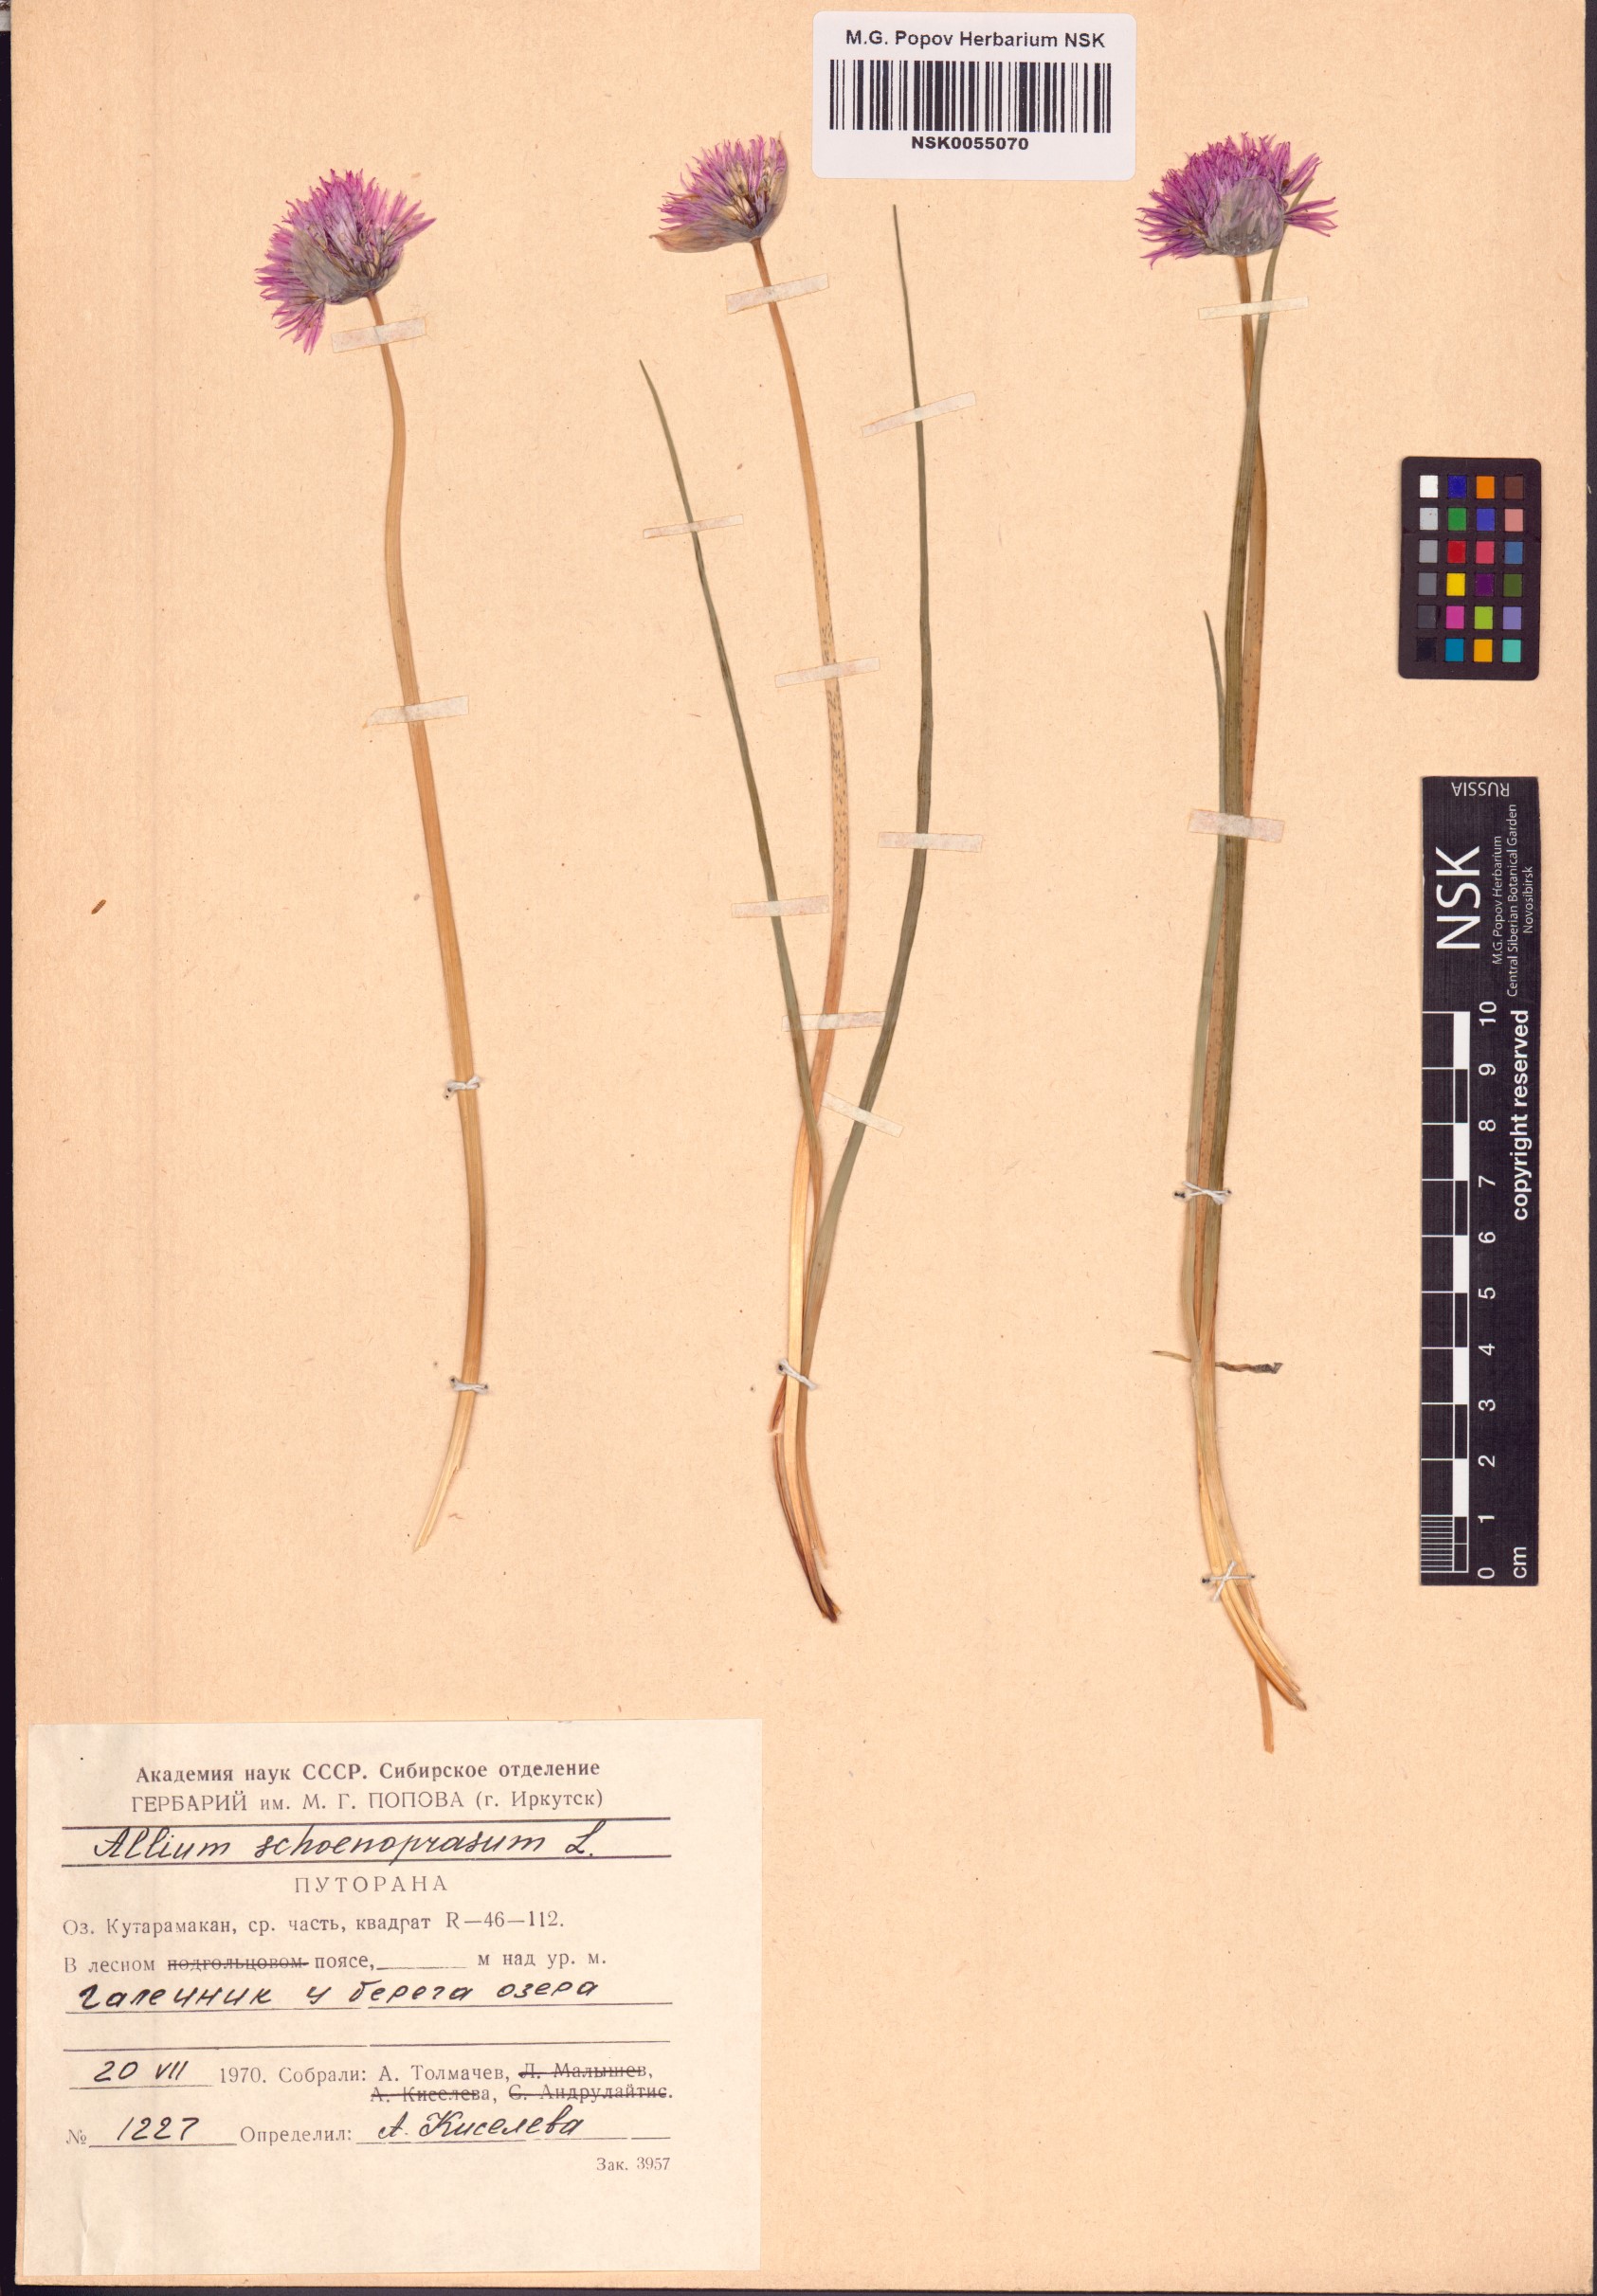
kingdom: Plantae
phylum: Tracheophyta
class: Liliopsida
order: Asparagales
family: Amaryllidaceae
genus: Allium
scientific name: Allium schoenoprasum
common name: Chives
